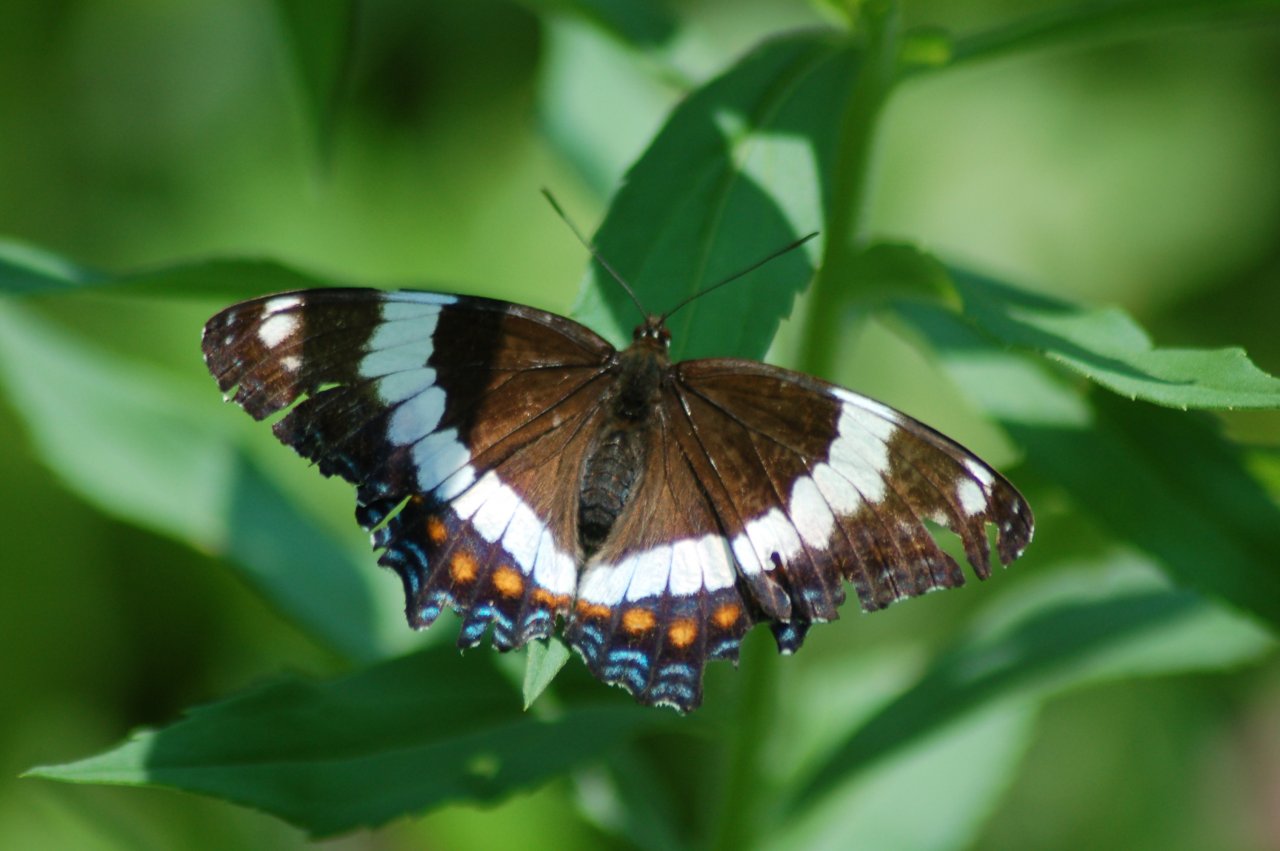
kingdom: Animalia
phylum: Arthropoda
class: Insecta
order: Lepidoptera
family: Nymphalidae
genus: Limenitis
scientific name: Limenitis arthemis
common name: Red-spotted Admiral
